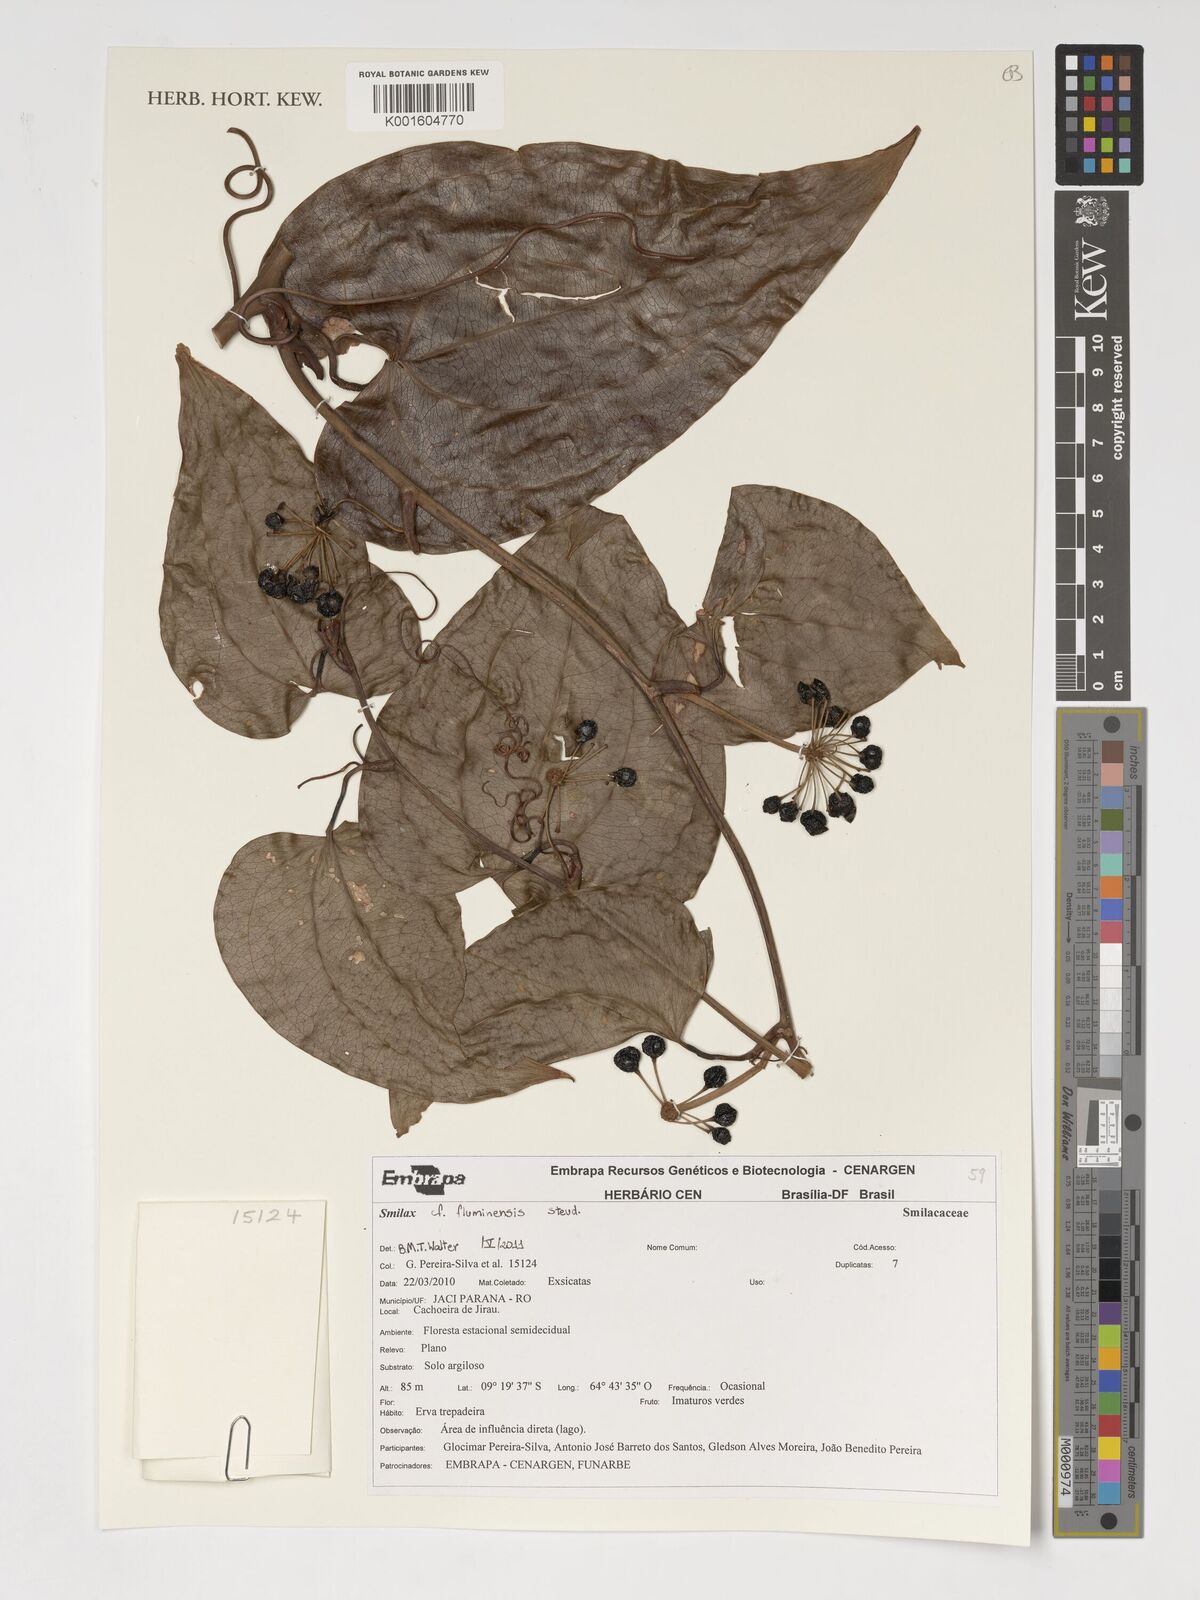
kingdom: Plantae
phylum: Tracheophyta
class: Liliopsida
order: Liliales
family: Smilacaceae
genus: Smilax
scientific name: Smilax fluminensis
